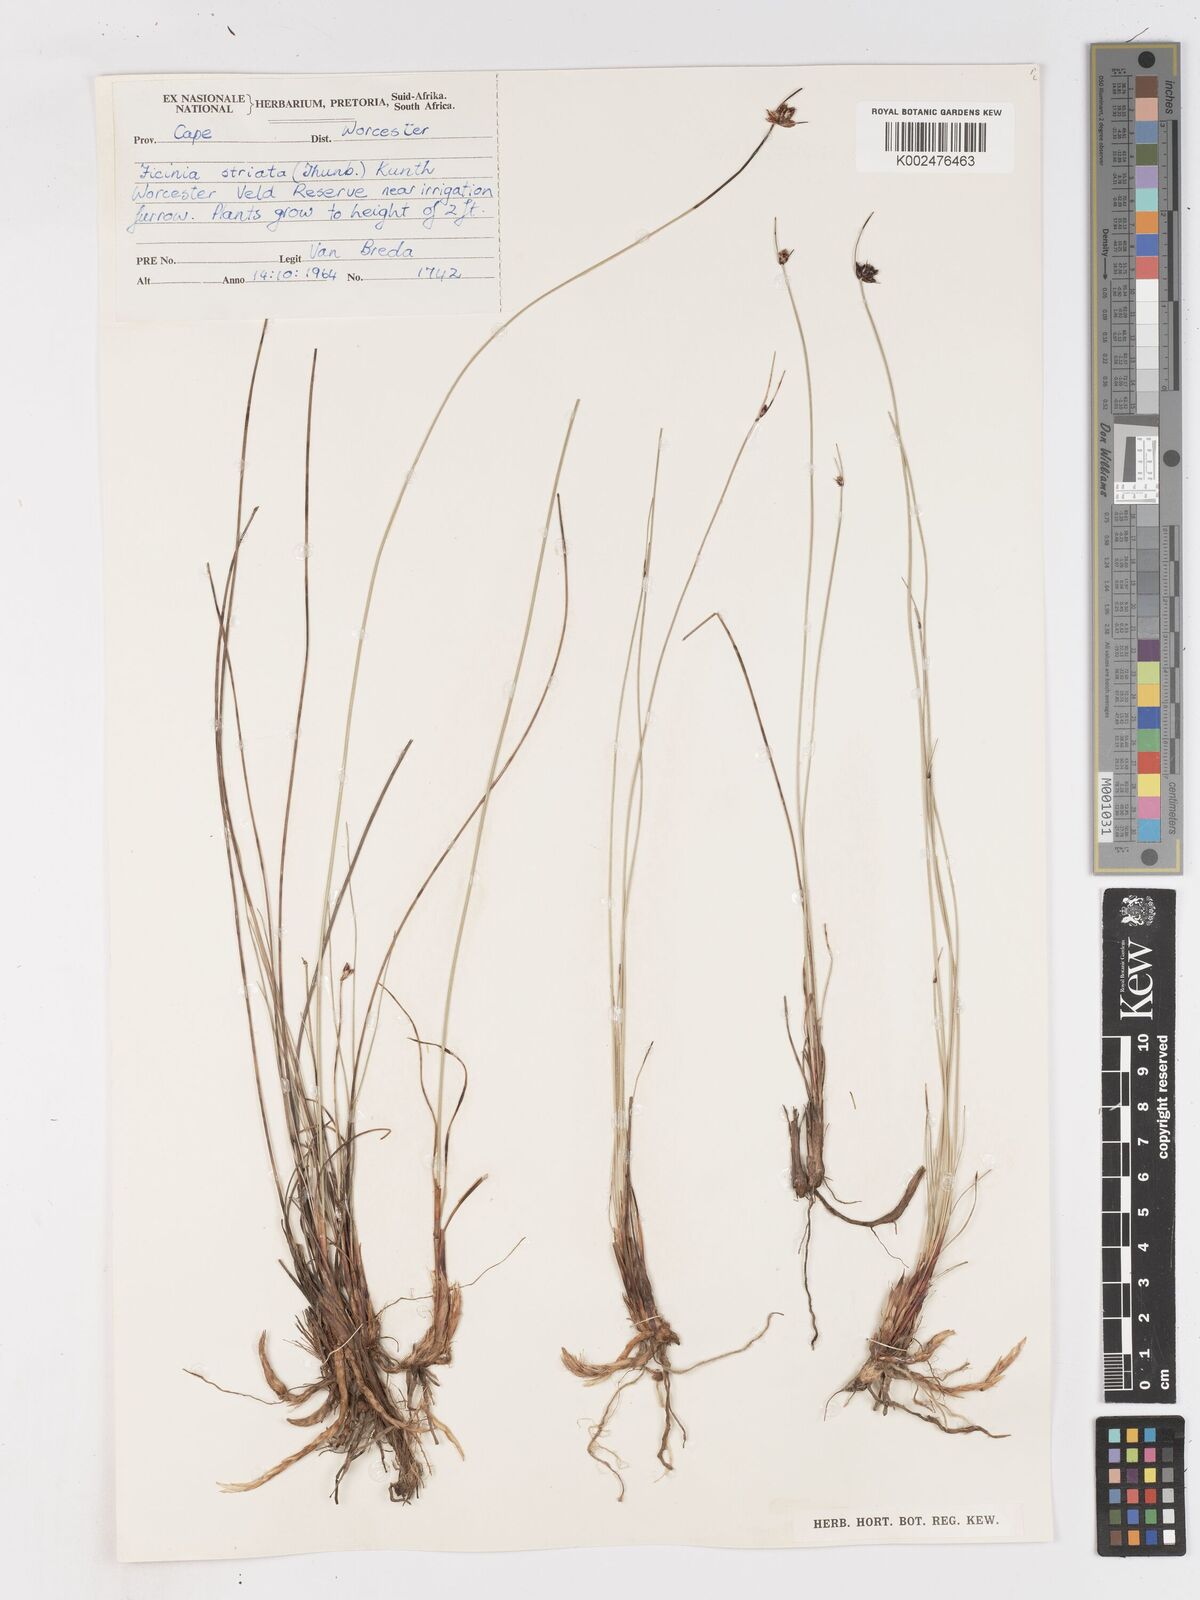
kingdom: Plantae
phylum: Tracheophyta
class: Liliopsida
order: Poales
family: Cyperaceae
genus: Ficinia
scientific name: Ficinia indica
